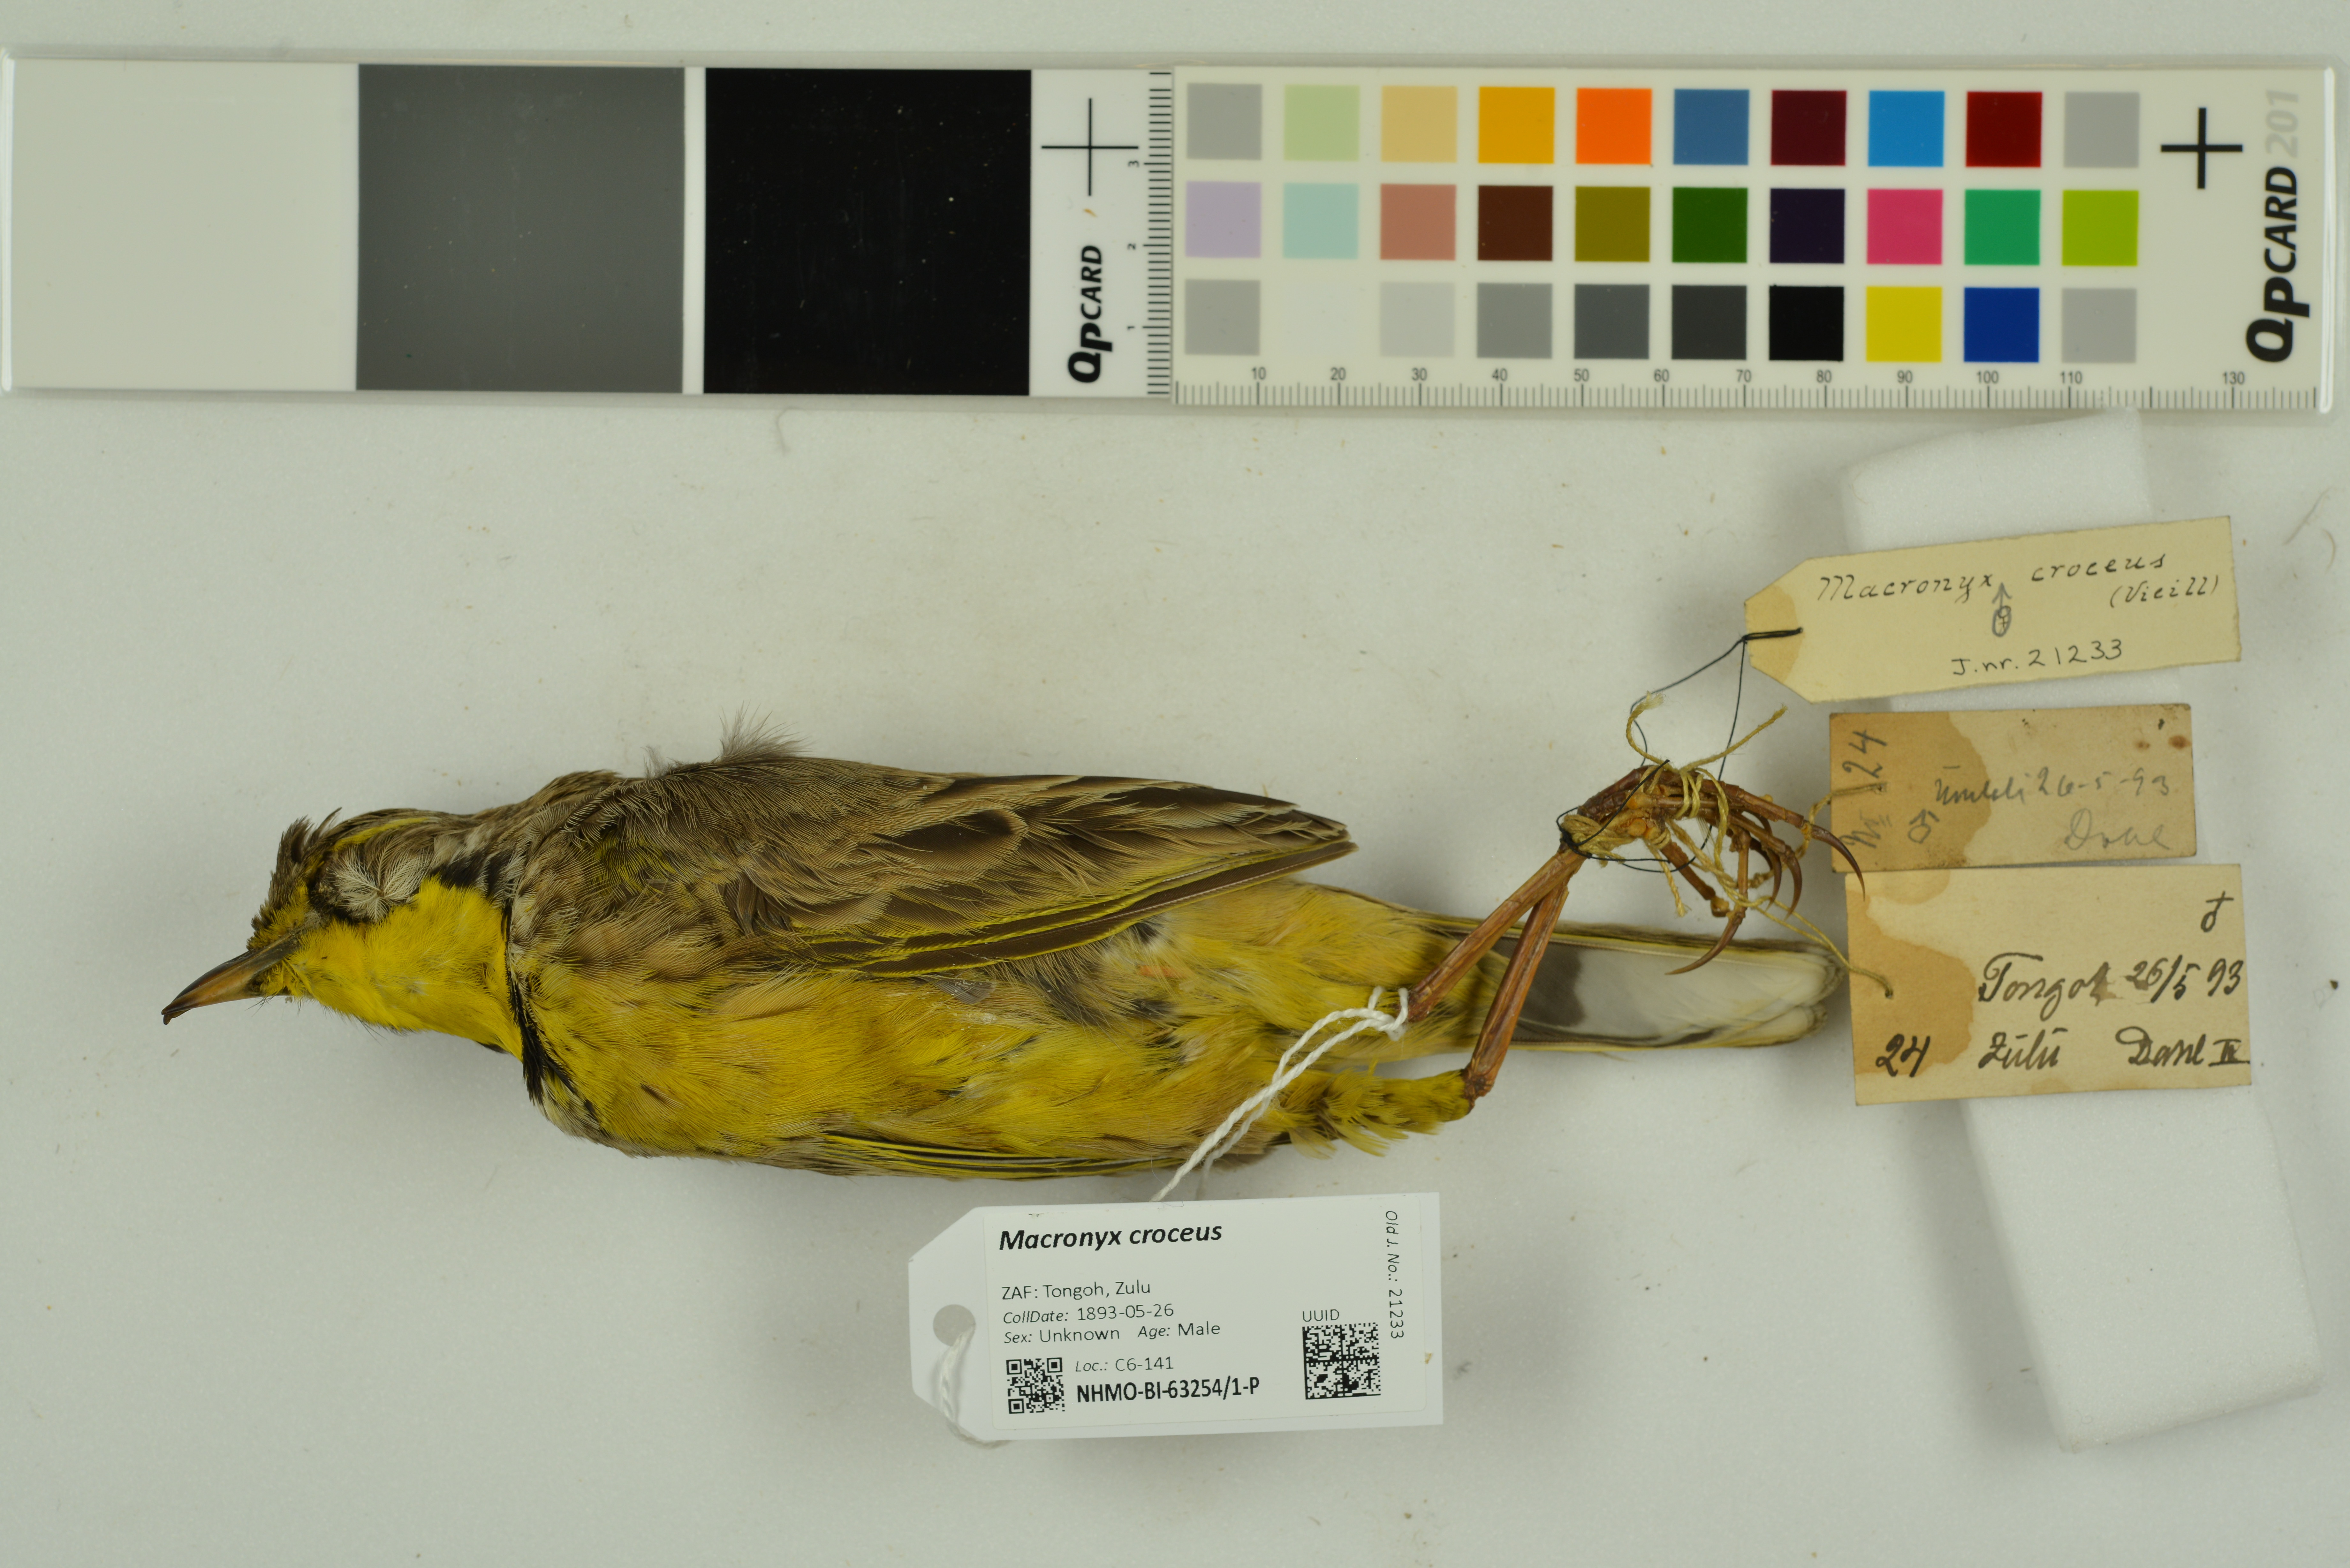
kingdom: Animalia
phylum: Chordata
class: Aves
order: Passeriformes
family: Motacillidae
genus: Macronyx
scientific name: Macronyx croceus
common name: Yellow-throated longclaw
